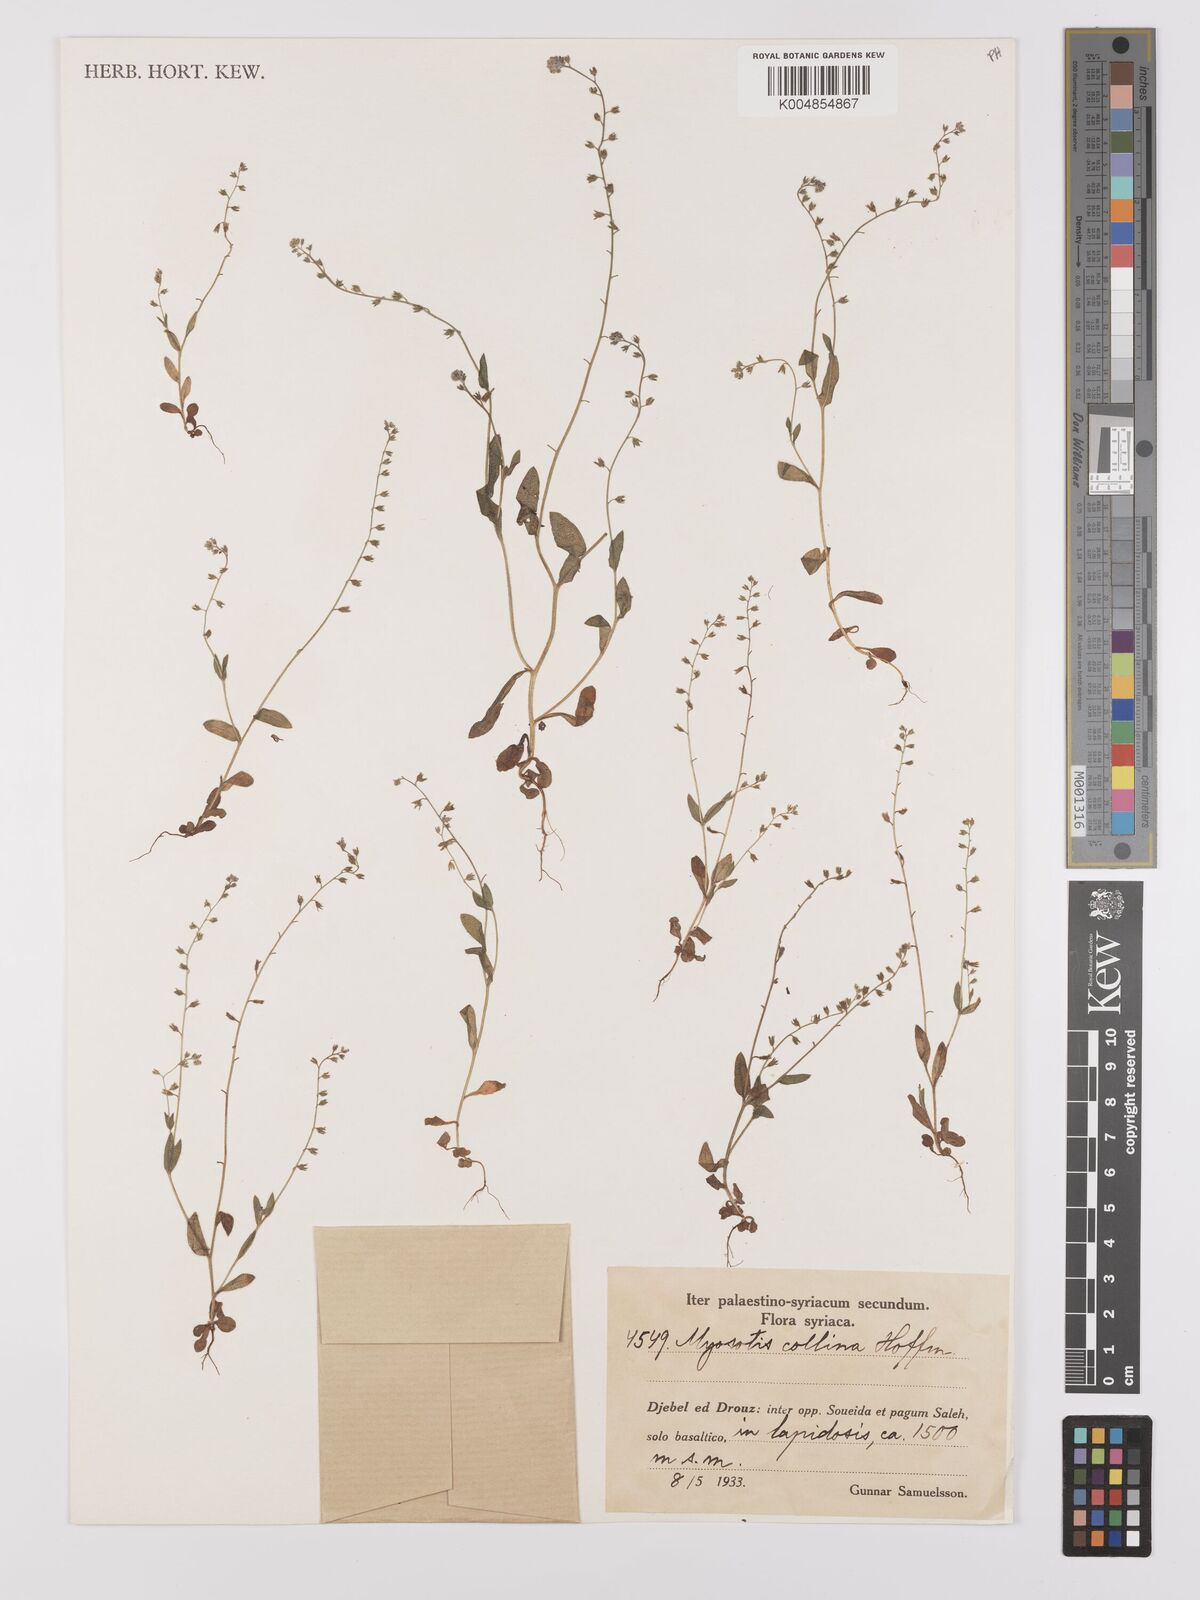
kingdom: Plantae
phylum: Tracheophyta
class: Magnoliopsida
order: Boraginales
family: Boraginaceae
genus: Myosotis
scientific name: Myosotis discolor
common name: Changing forget-me-not
